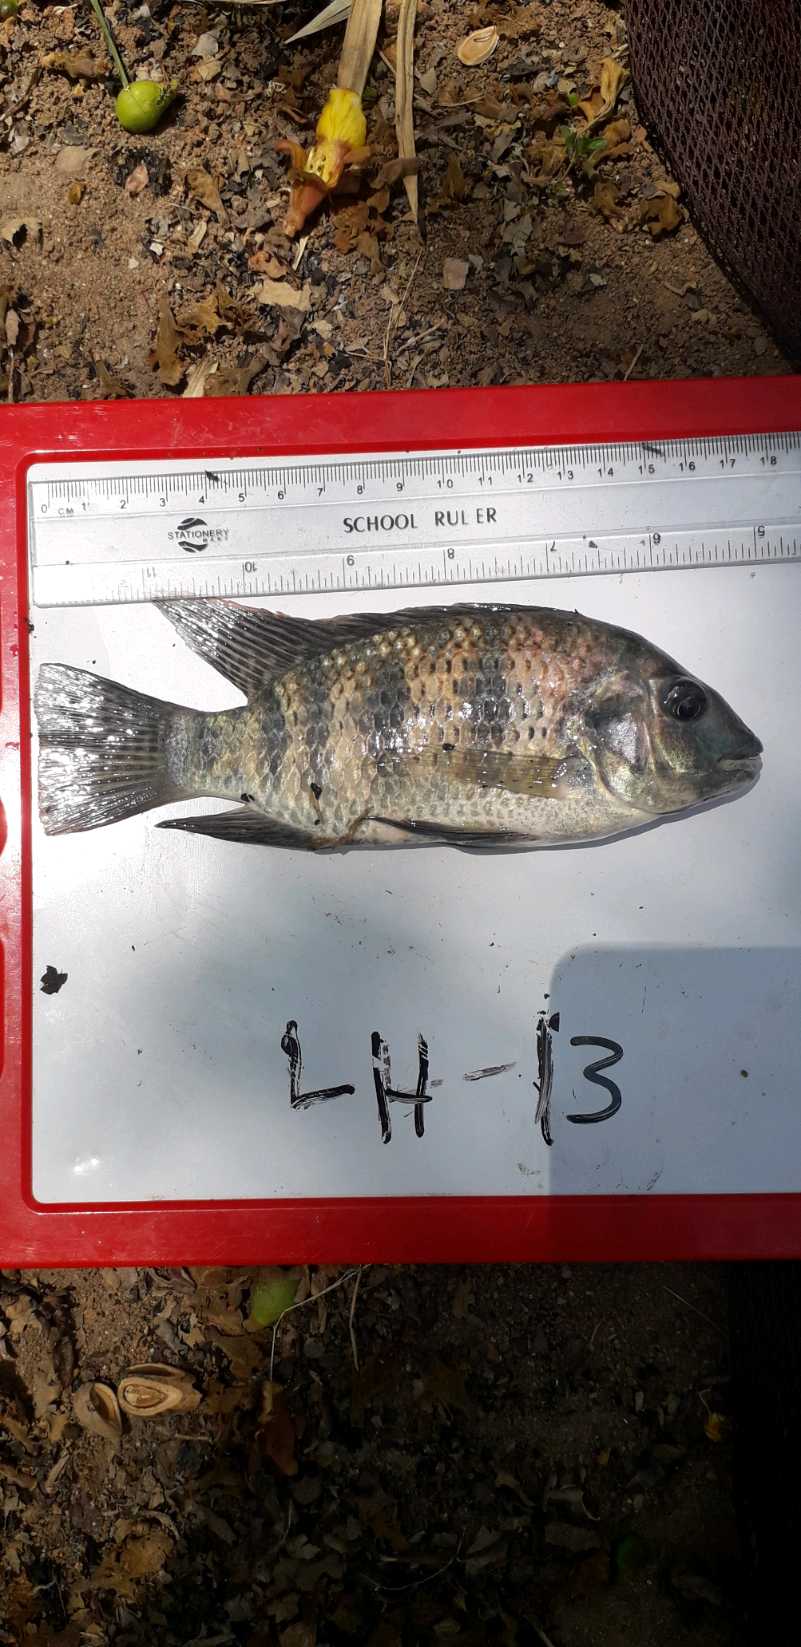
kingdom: Animalia
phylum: Chordata
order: Perciformes
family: Cichlidae
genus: Coptodon
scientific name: Coptodon rendalli
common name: Redbreast tilapia
